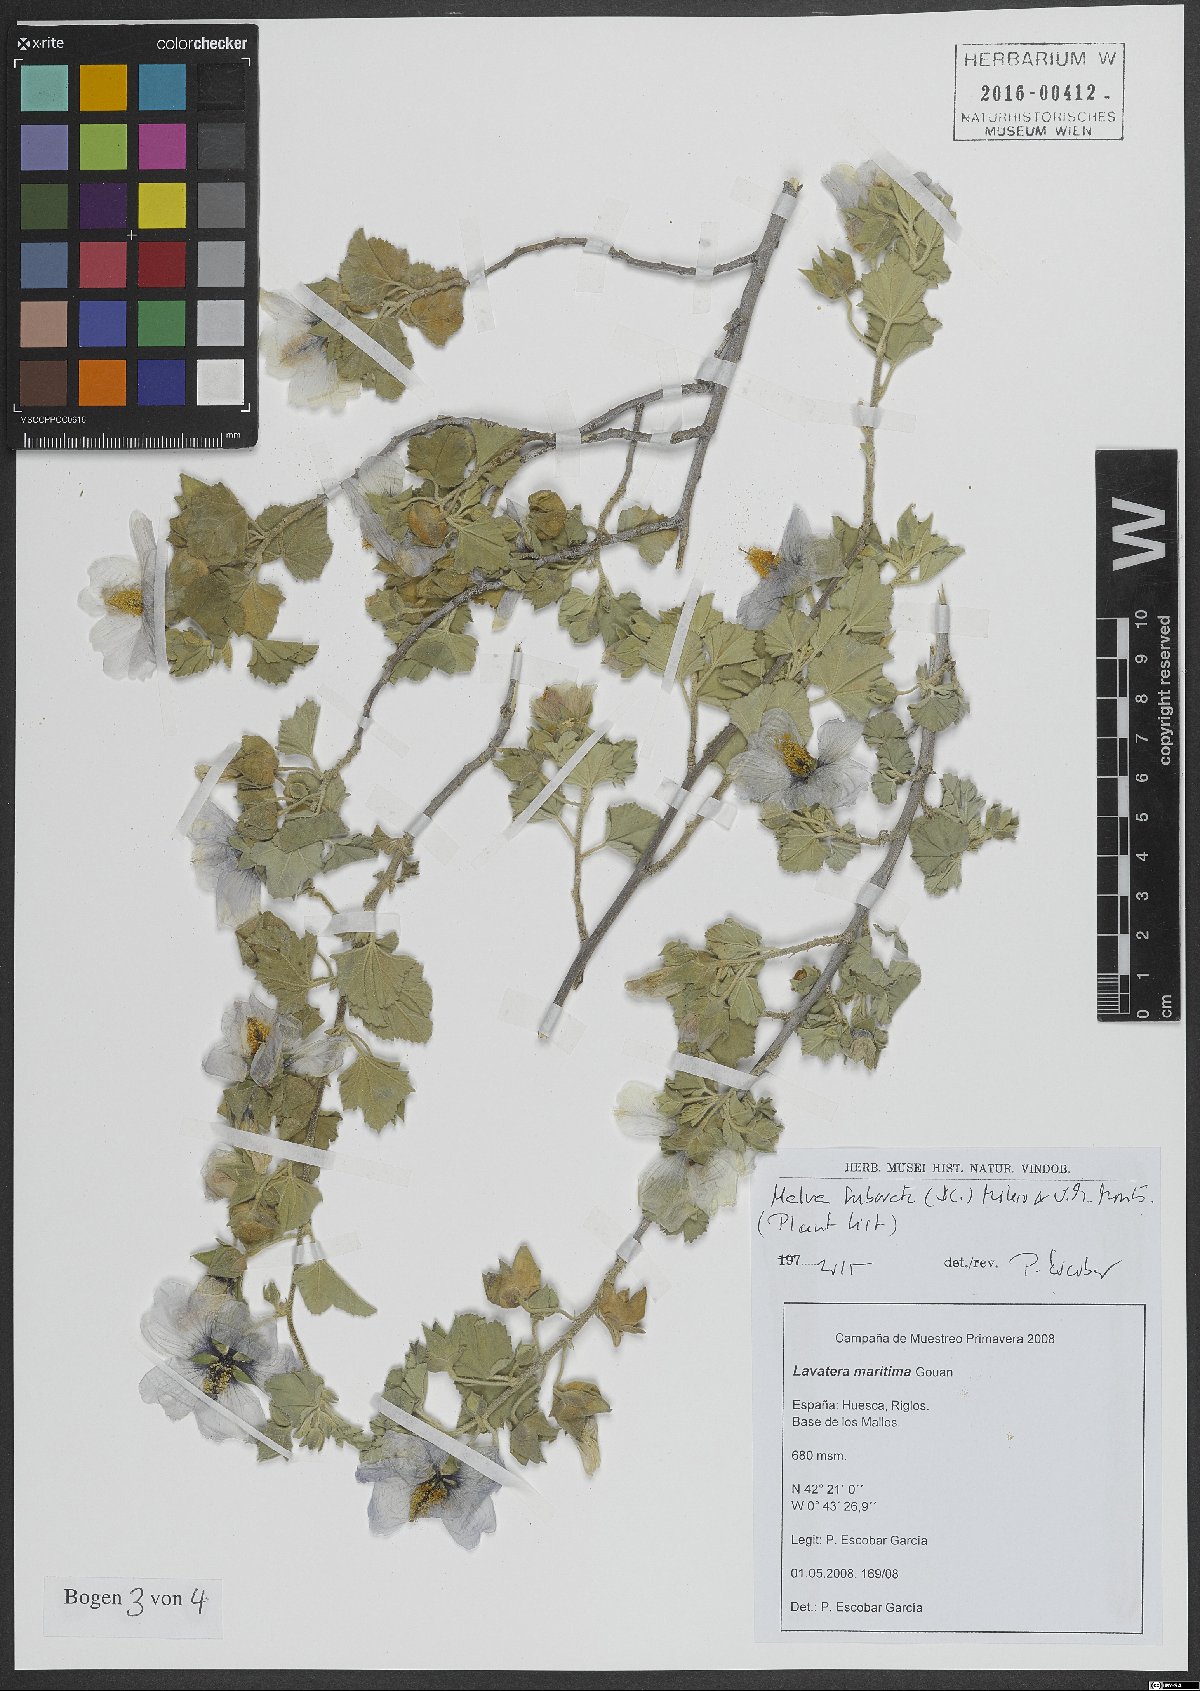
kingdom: Plantae
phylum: Tracheophyta
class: Magnoliopsida
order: Malvales
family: Malvaceae
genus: Malva
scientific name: Malva subovata
